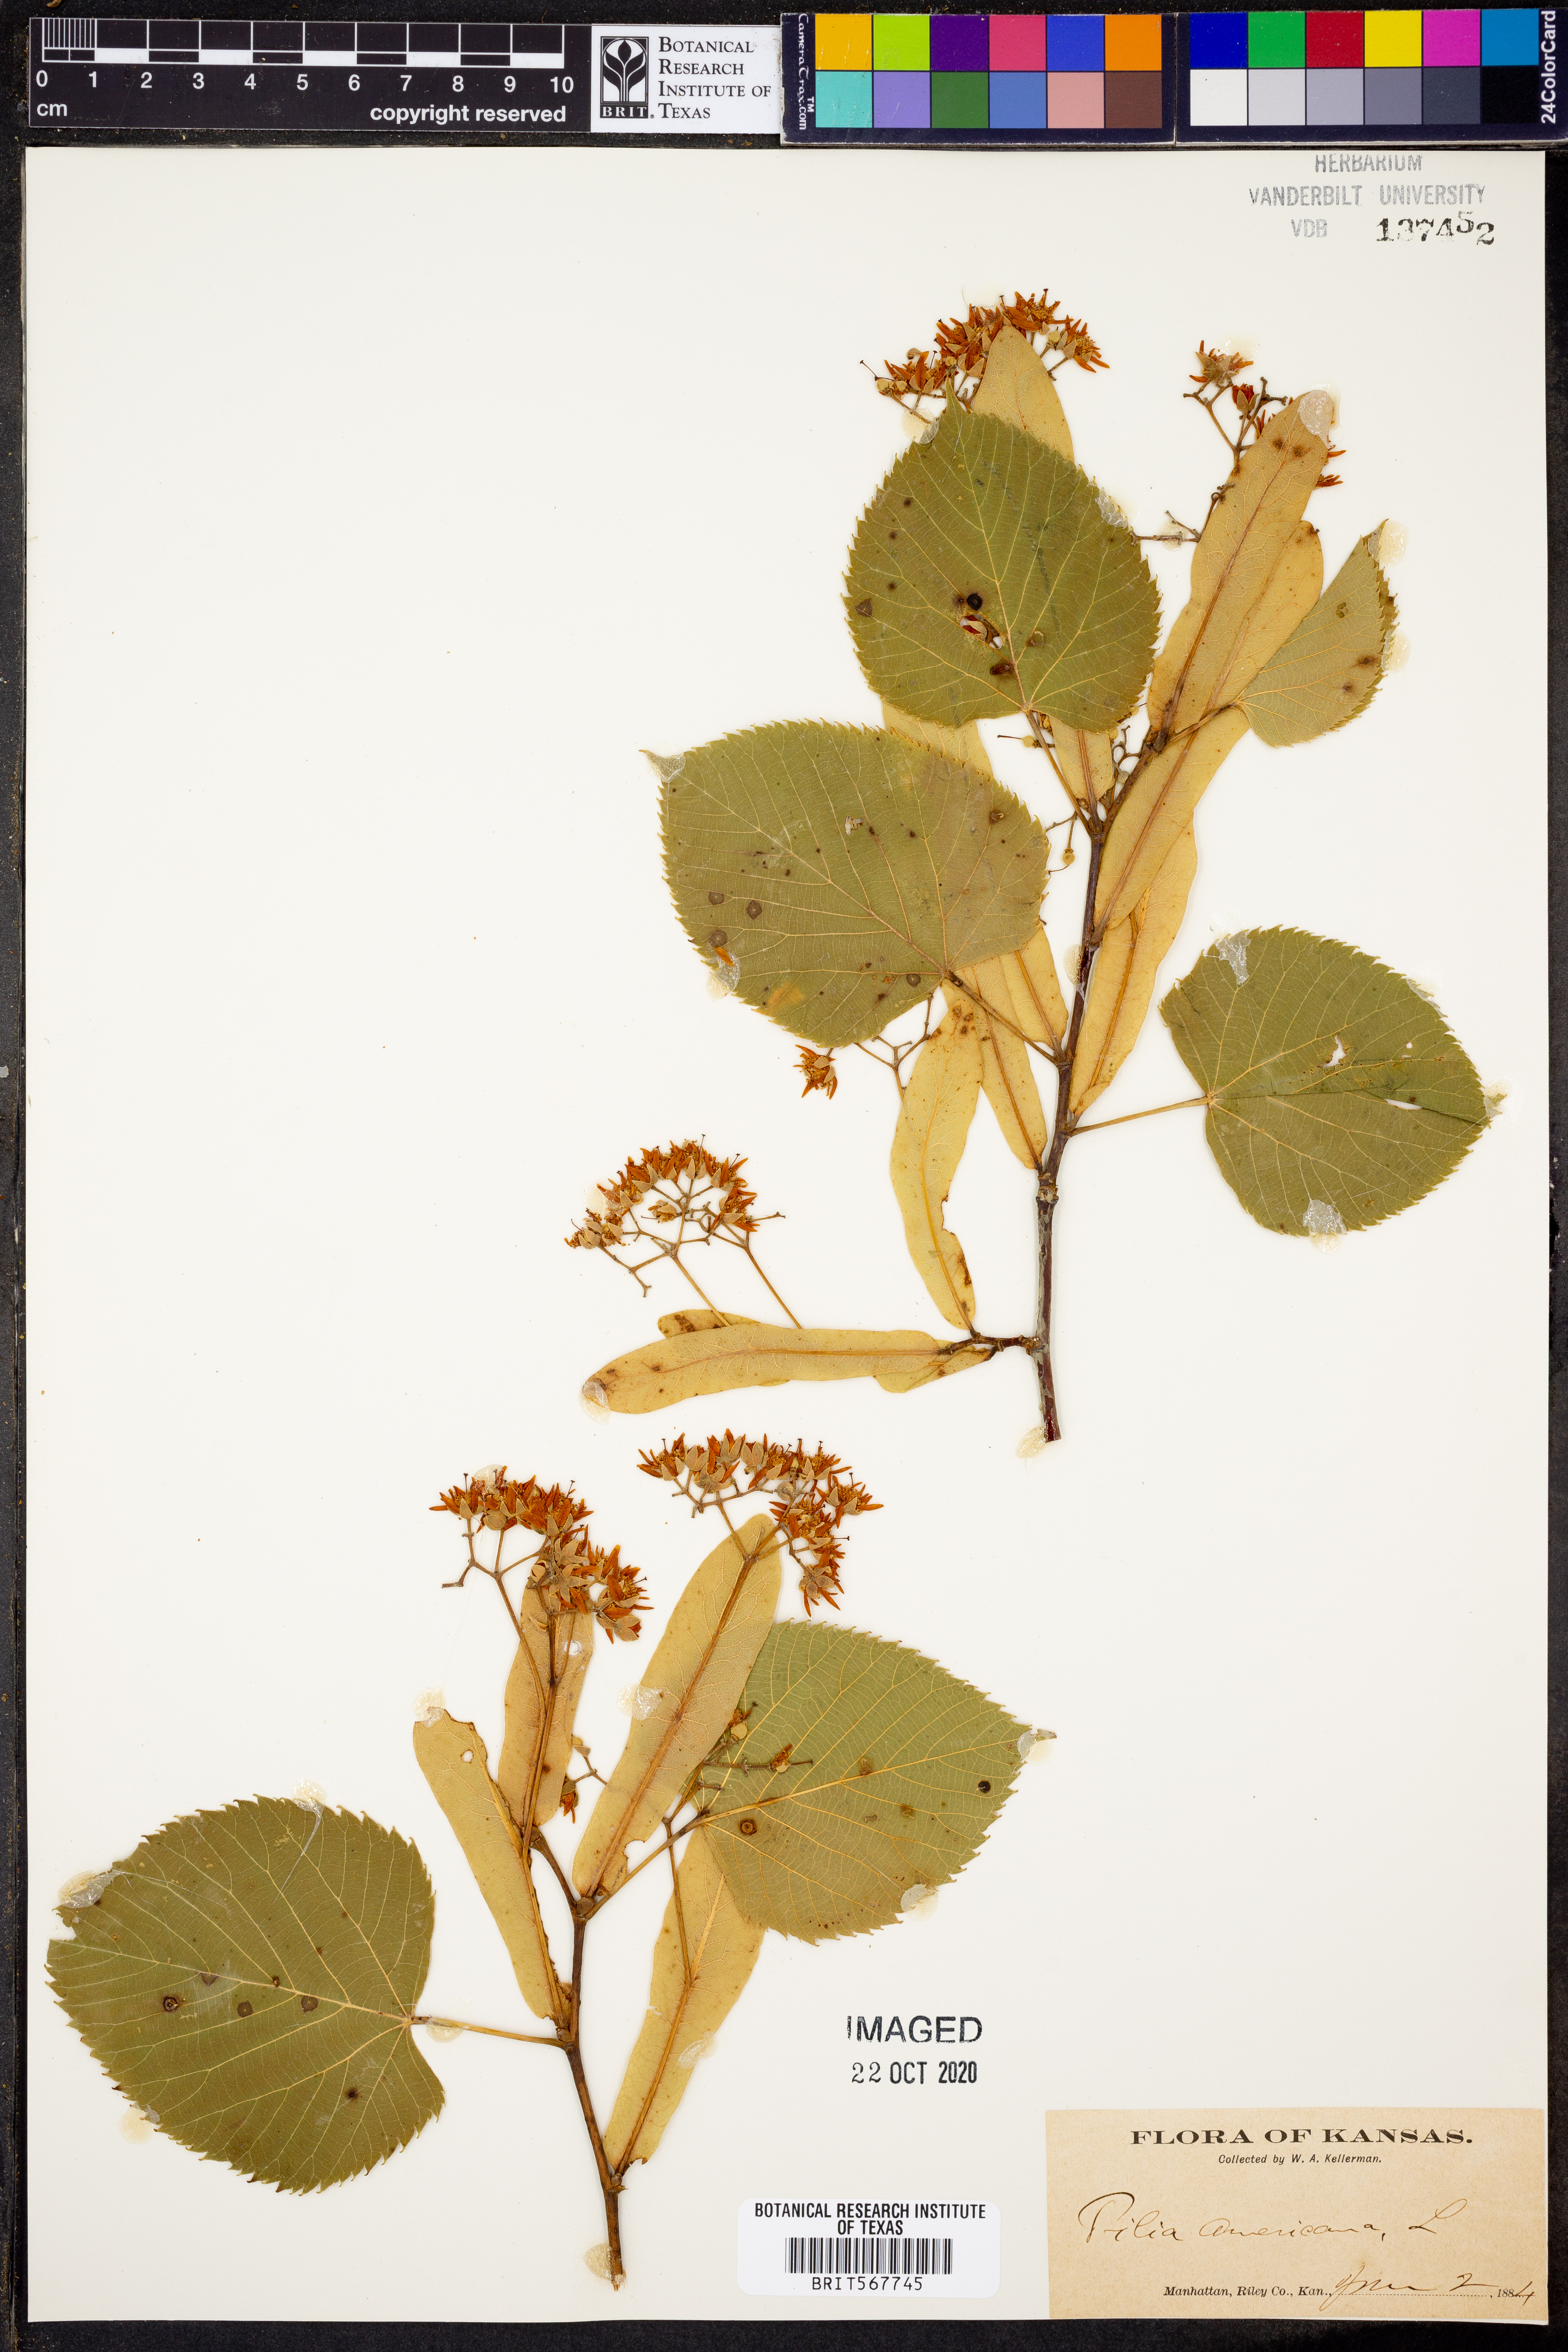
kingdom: Plantae
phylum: Tracheophyta
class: Magnoliopsida
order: Malvales
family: Malvaceae
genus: Tilia
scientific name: Tilia americana
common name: Basswood
